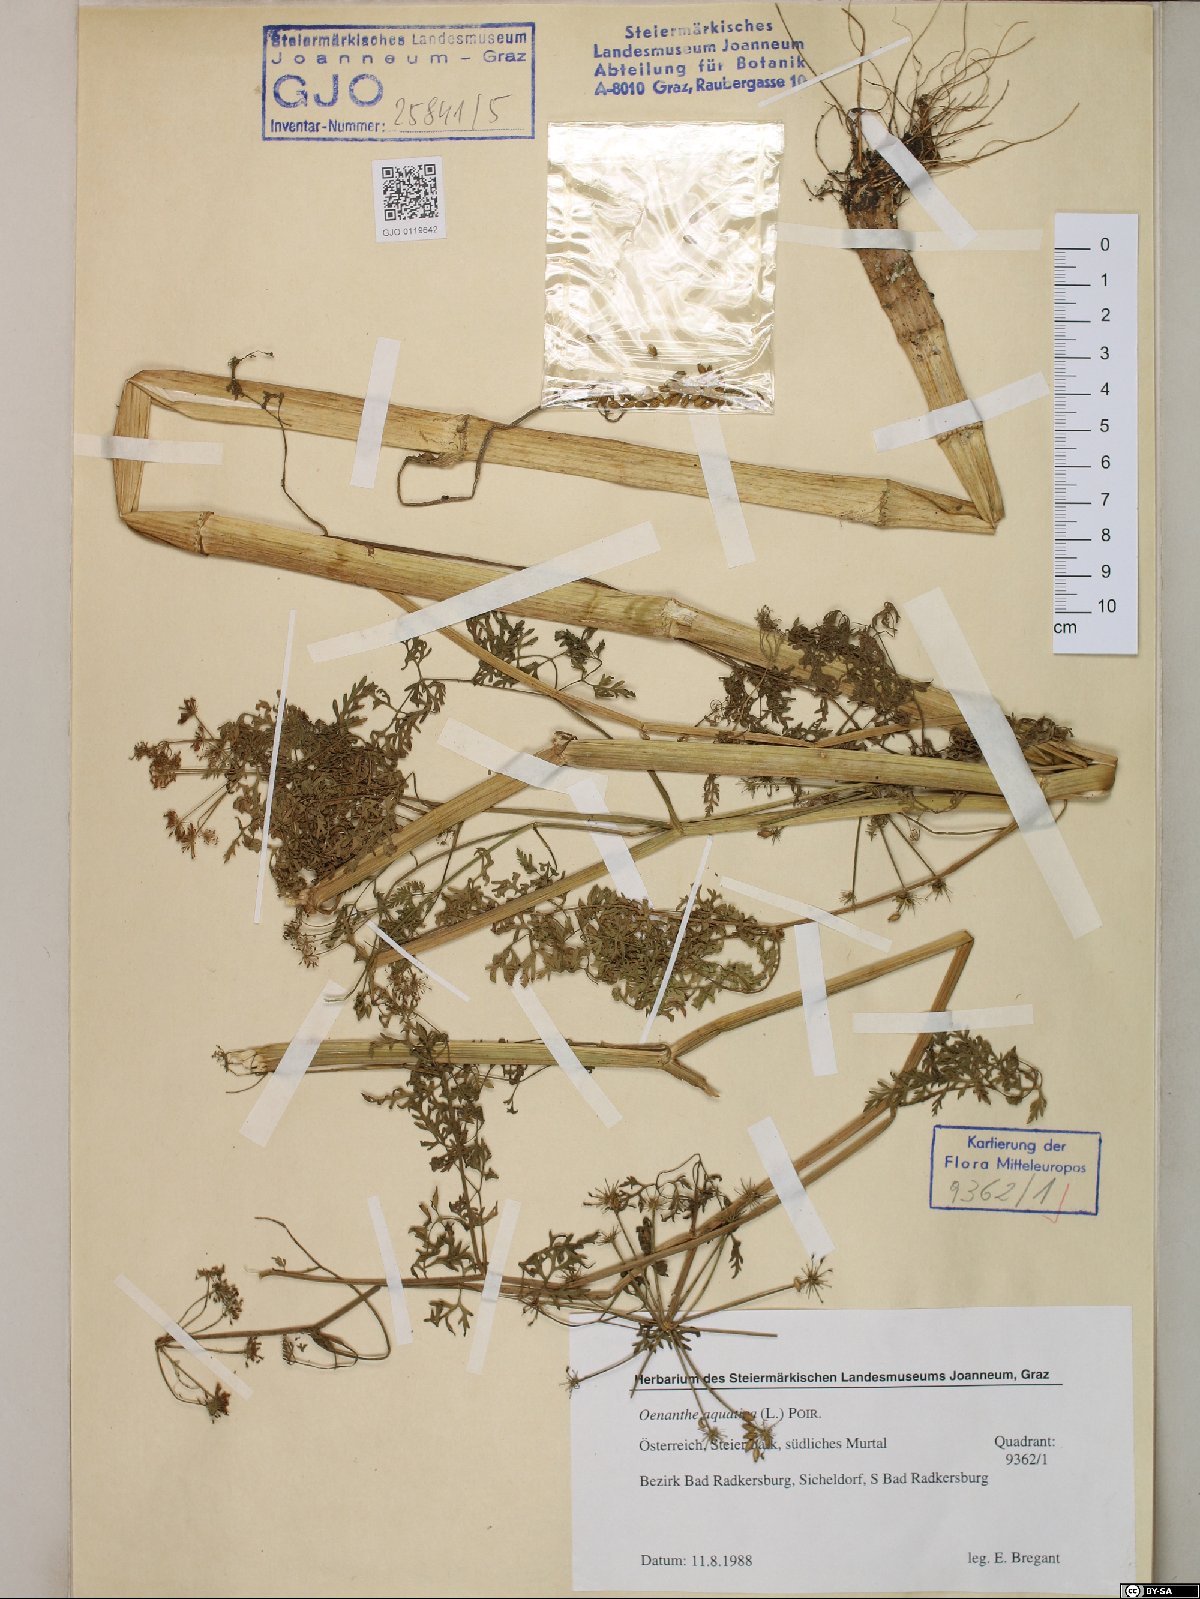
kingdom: Plantae
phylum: Tracheophyta
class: Magnoliopsida
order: Apiales
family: Apiaceae
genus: Oenanthe
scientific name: Oenanthe aquatica
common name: Fine-leaved water-dropwort
